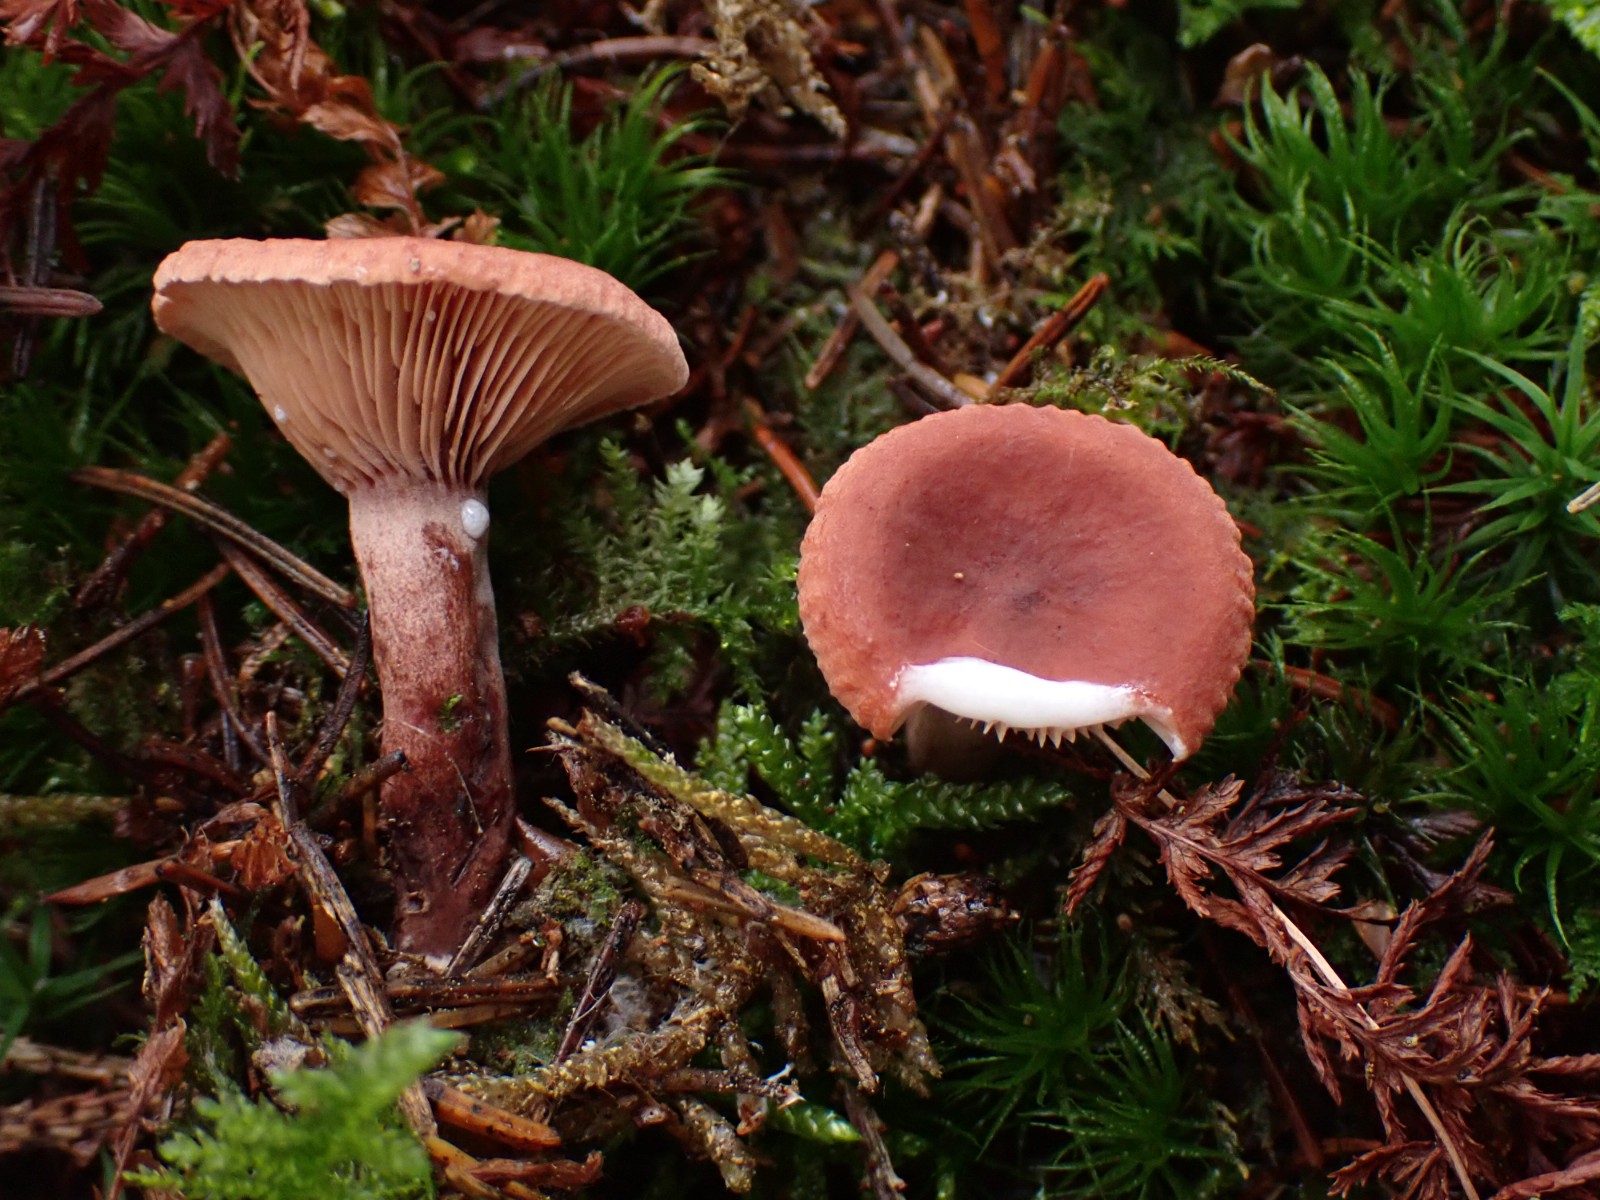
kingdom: Fungi
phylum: Basidiomycota
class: Agaricomycetes
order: Russulales
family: Russulaceae
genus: Lactarius
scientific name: Lactarius subdulcis
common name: sødlig mælkehat
